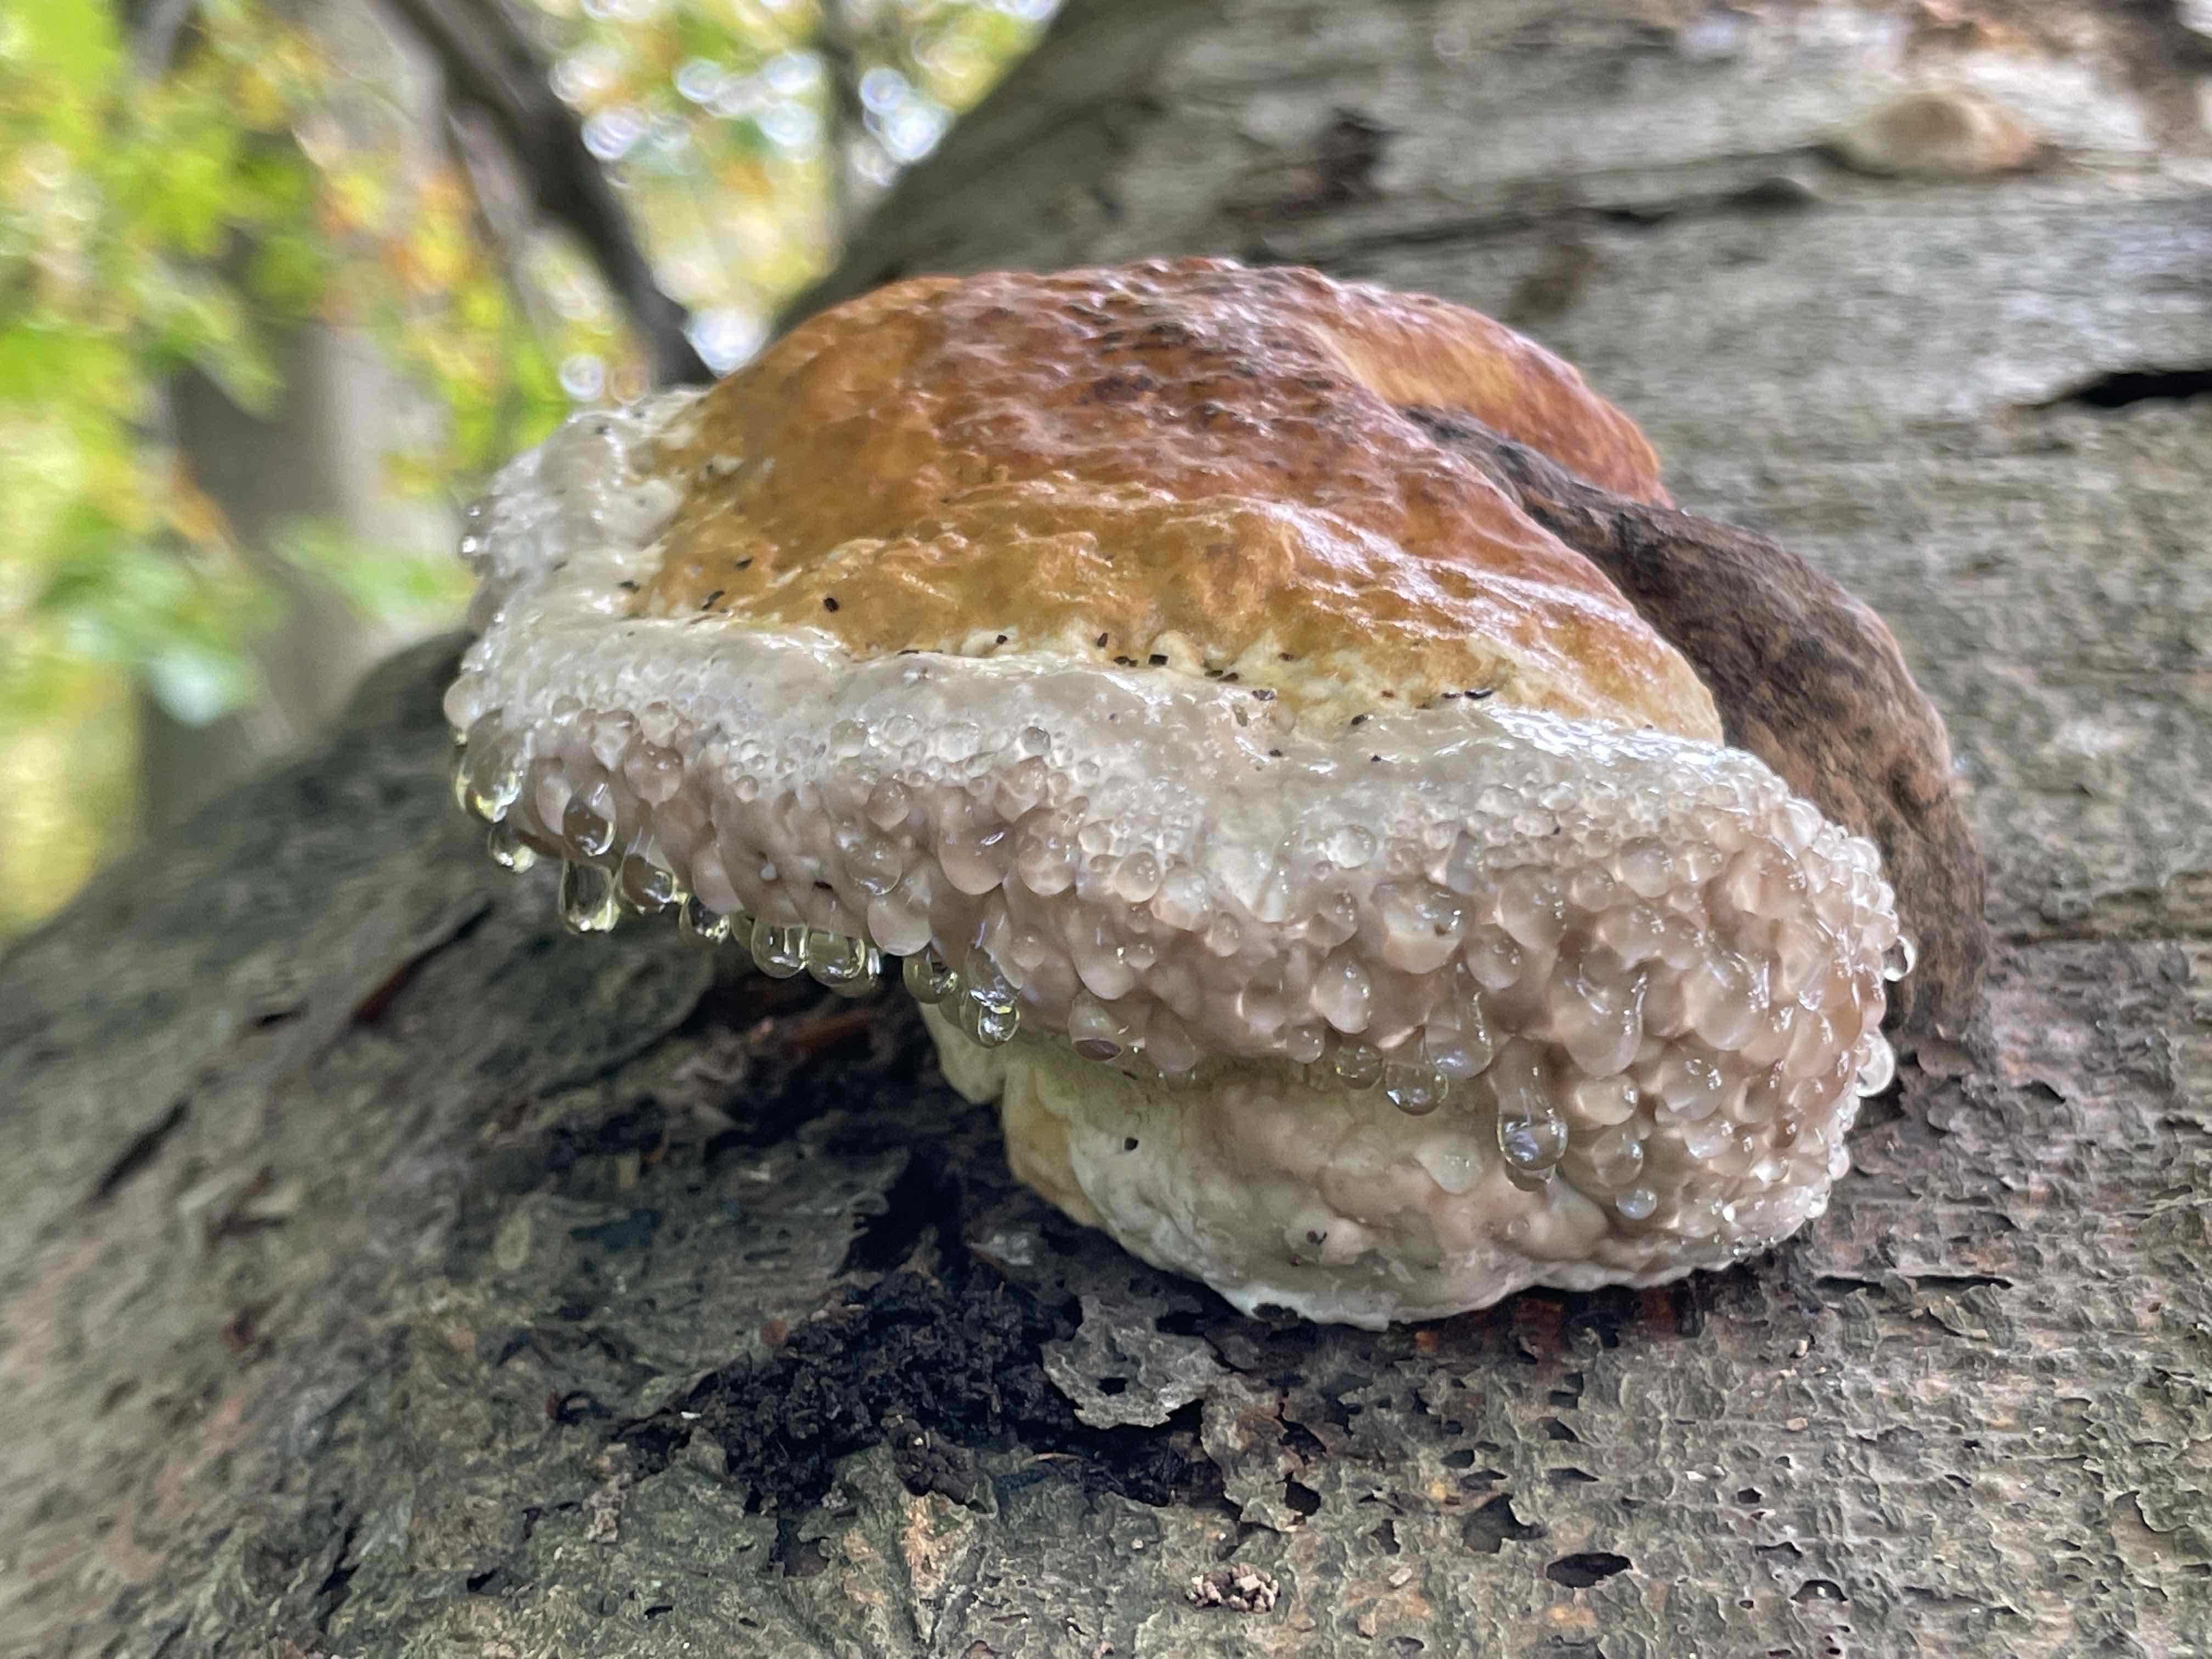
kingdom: Fungi
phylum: Basidiomycota
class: Agaricomycetes
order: Polyporales
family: Fomitopsidaceae
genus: Fomitopsis
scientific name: Fomitopsis pinicola
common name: randbæltet hovporesvamp
